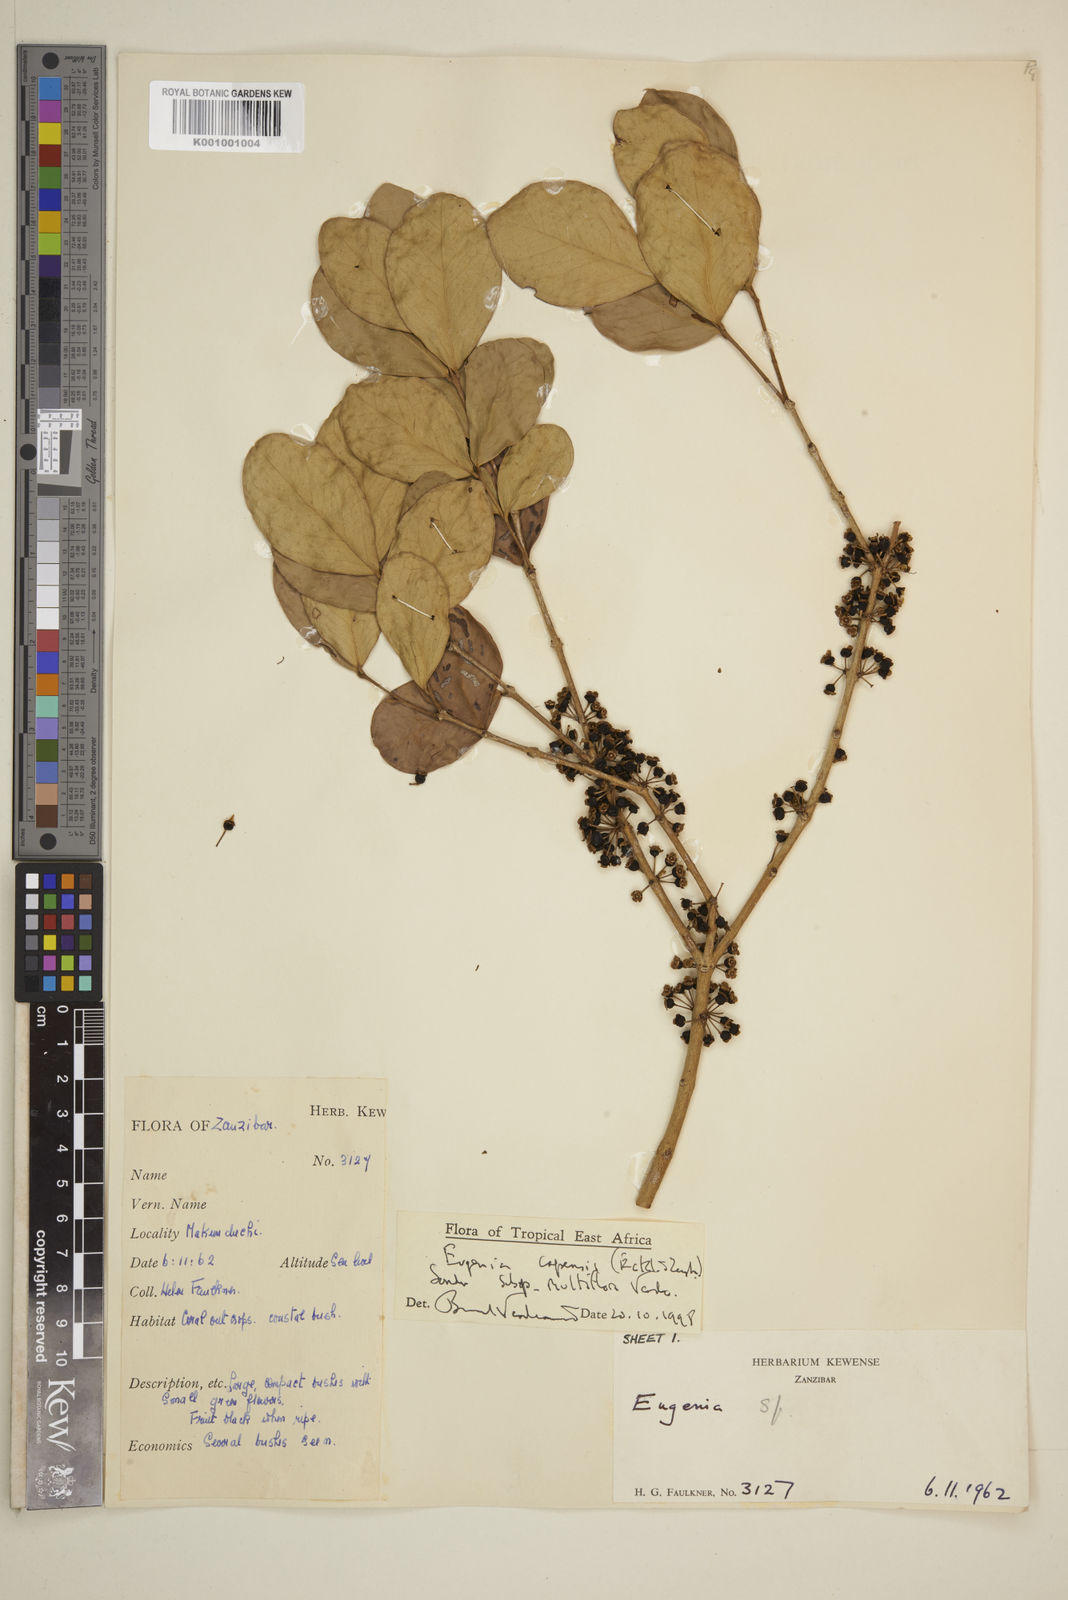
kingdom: Plantae
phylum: Tracheophyta
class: Magnoliopsida
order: Myrtales
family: Myrtaceae
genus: Eugenia
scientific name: Eugenia capensis
